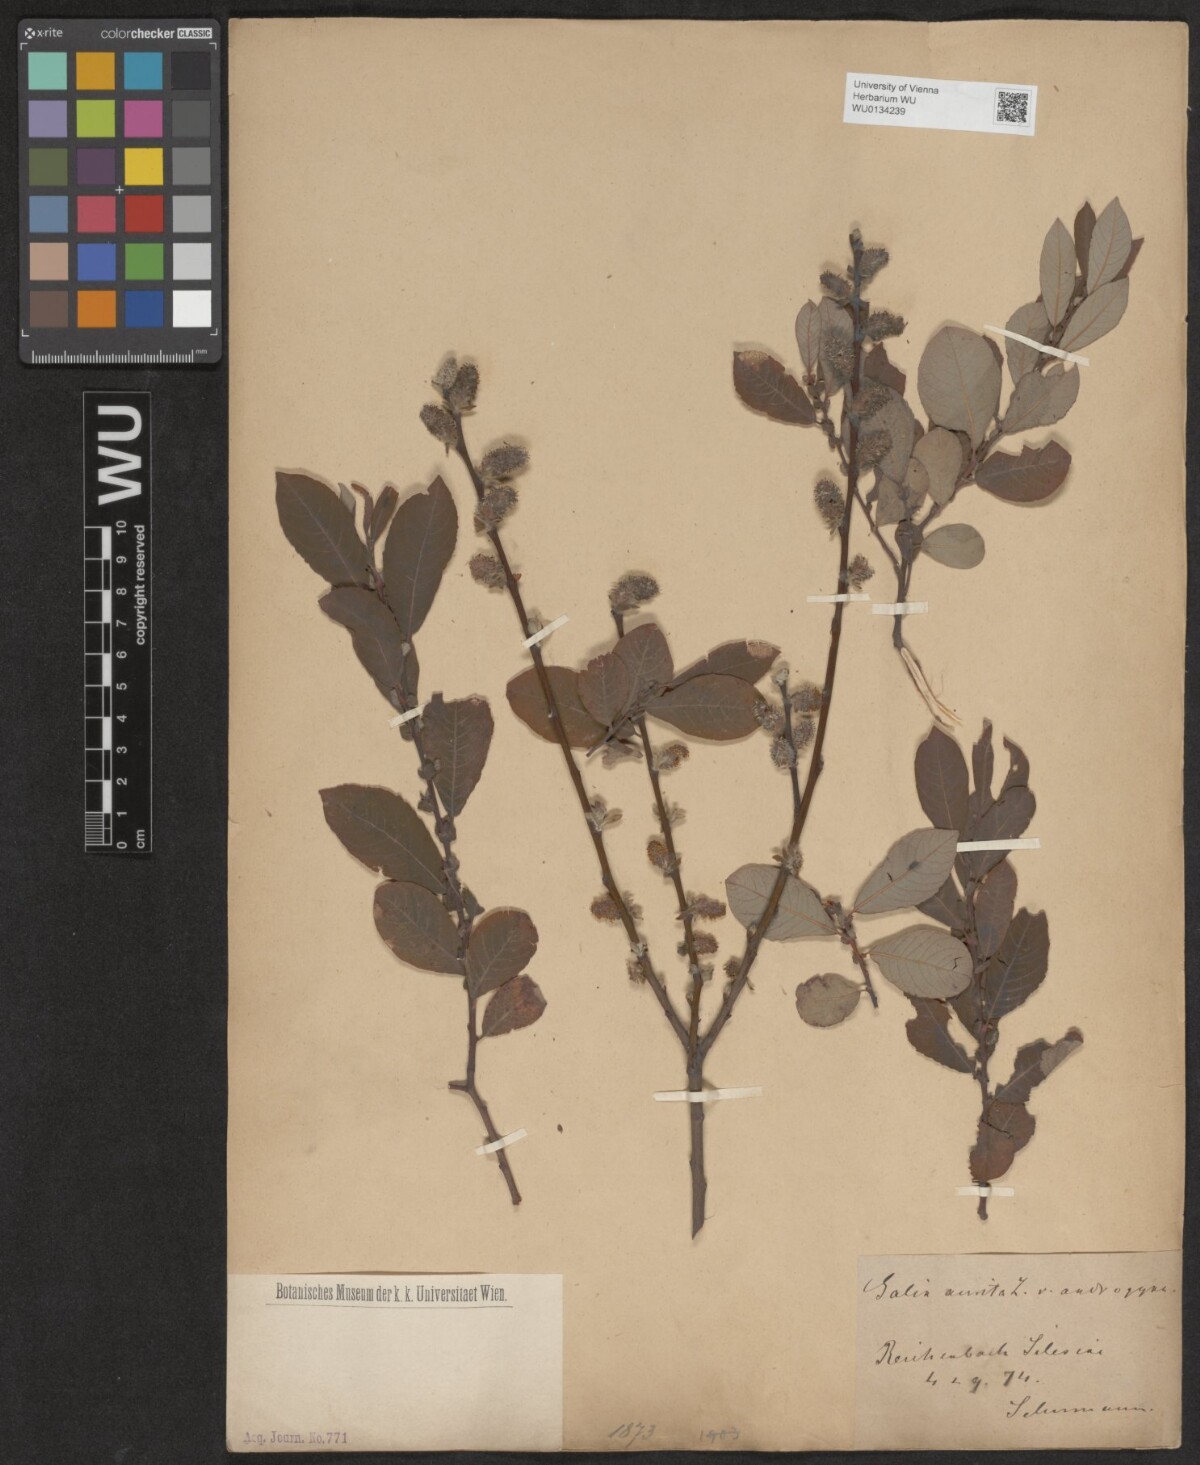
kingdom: Plantae
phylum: Tracheophyta
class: Magnoliopsida
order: Malpighiales
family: Salicaceae
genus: Salix
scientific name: Salix aurita
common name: Eared willow
